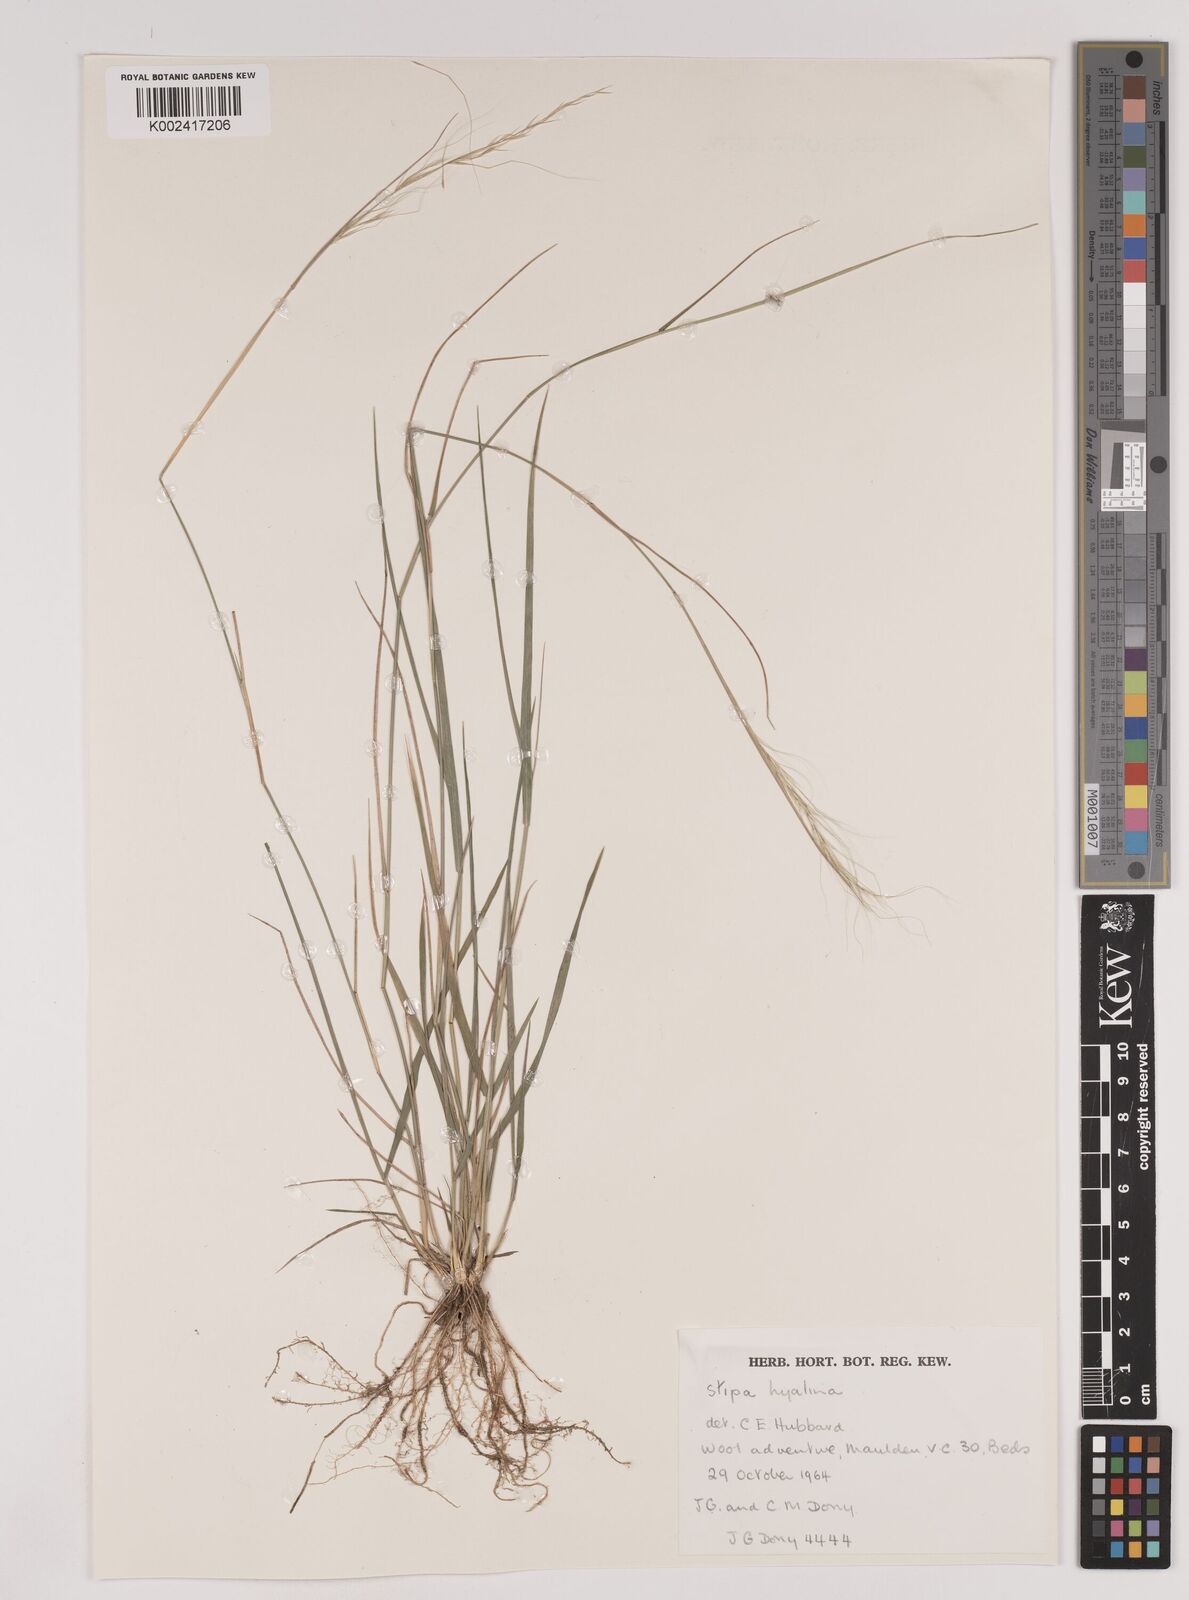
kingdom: Plantae
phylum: Tracheophyta
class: Liliopsida
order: Poales
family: Poaceae
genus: Nassella
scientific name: Nassella hyalina
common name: Spear grass
